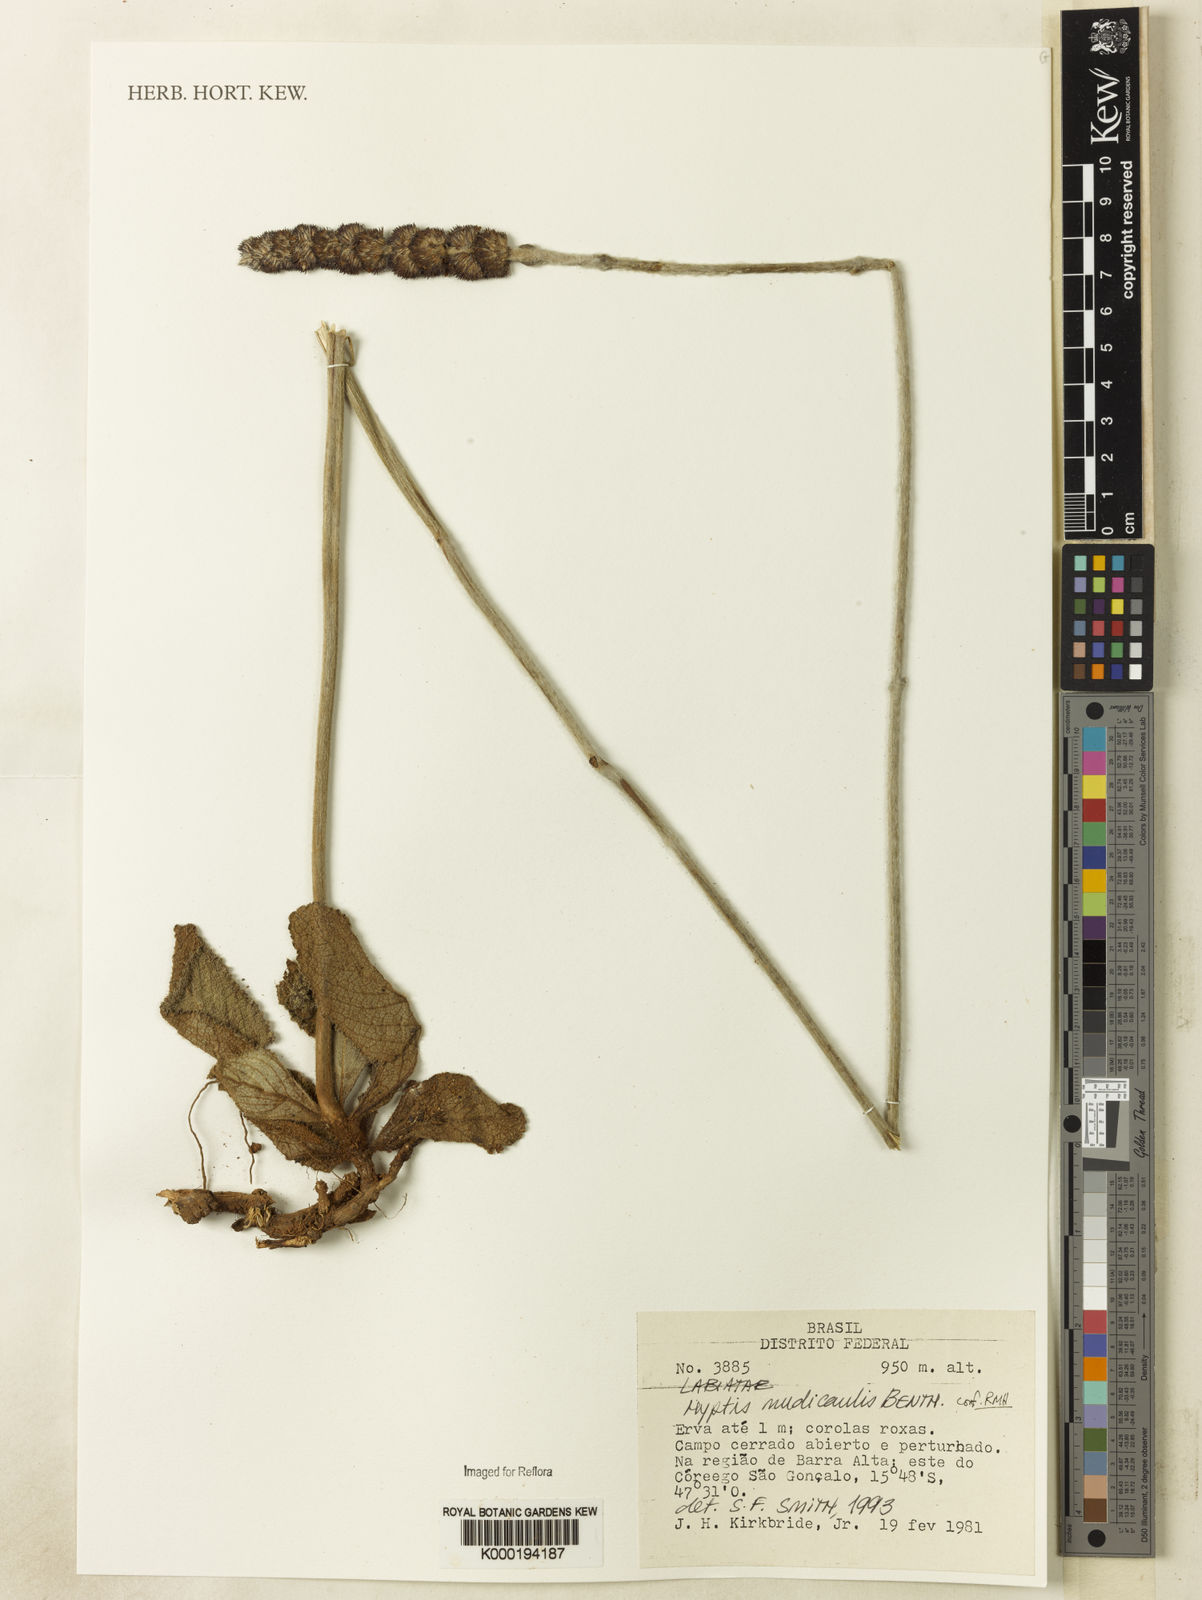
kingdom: Plantae
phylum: Tracheophyta
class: Magnoliopsida
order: Lamiales
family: Lamiaceae
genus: Hyptis
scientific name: Hyptis nudicaulis
